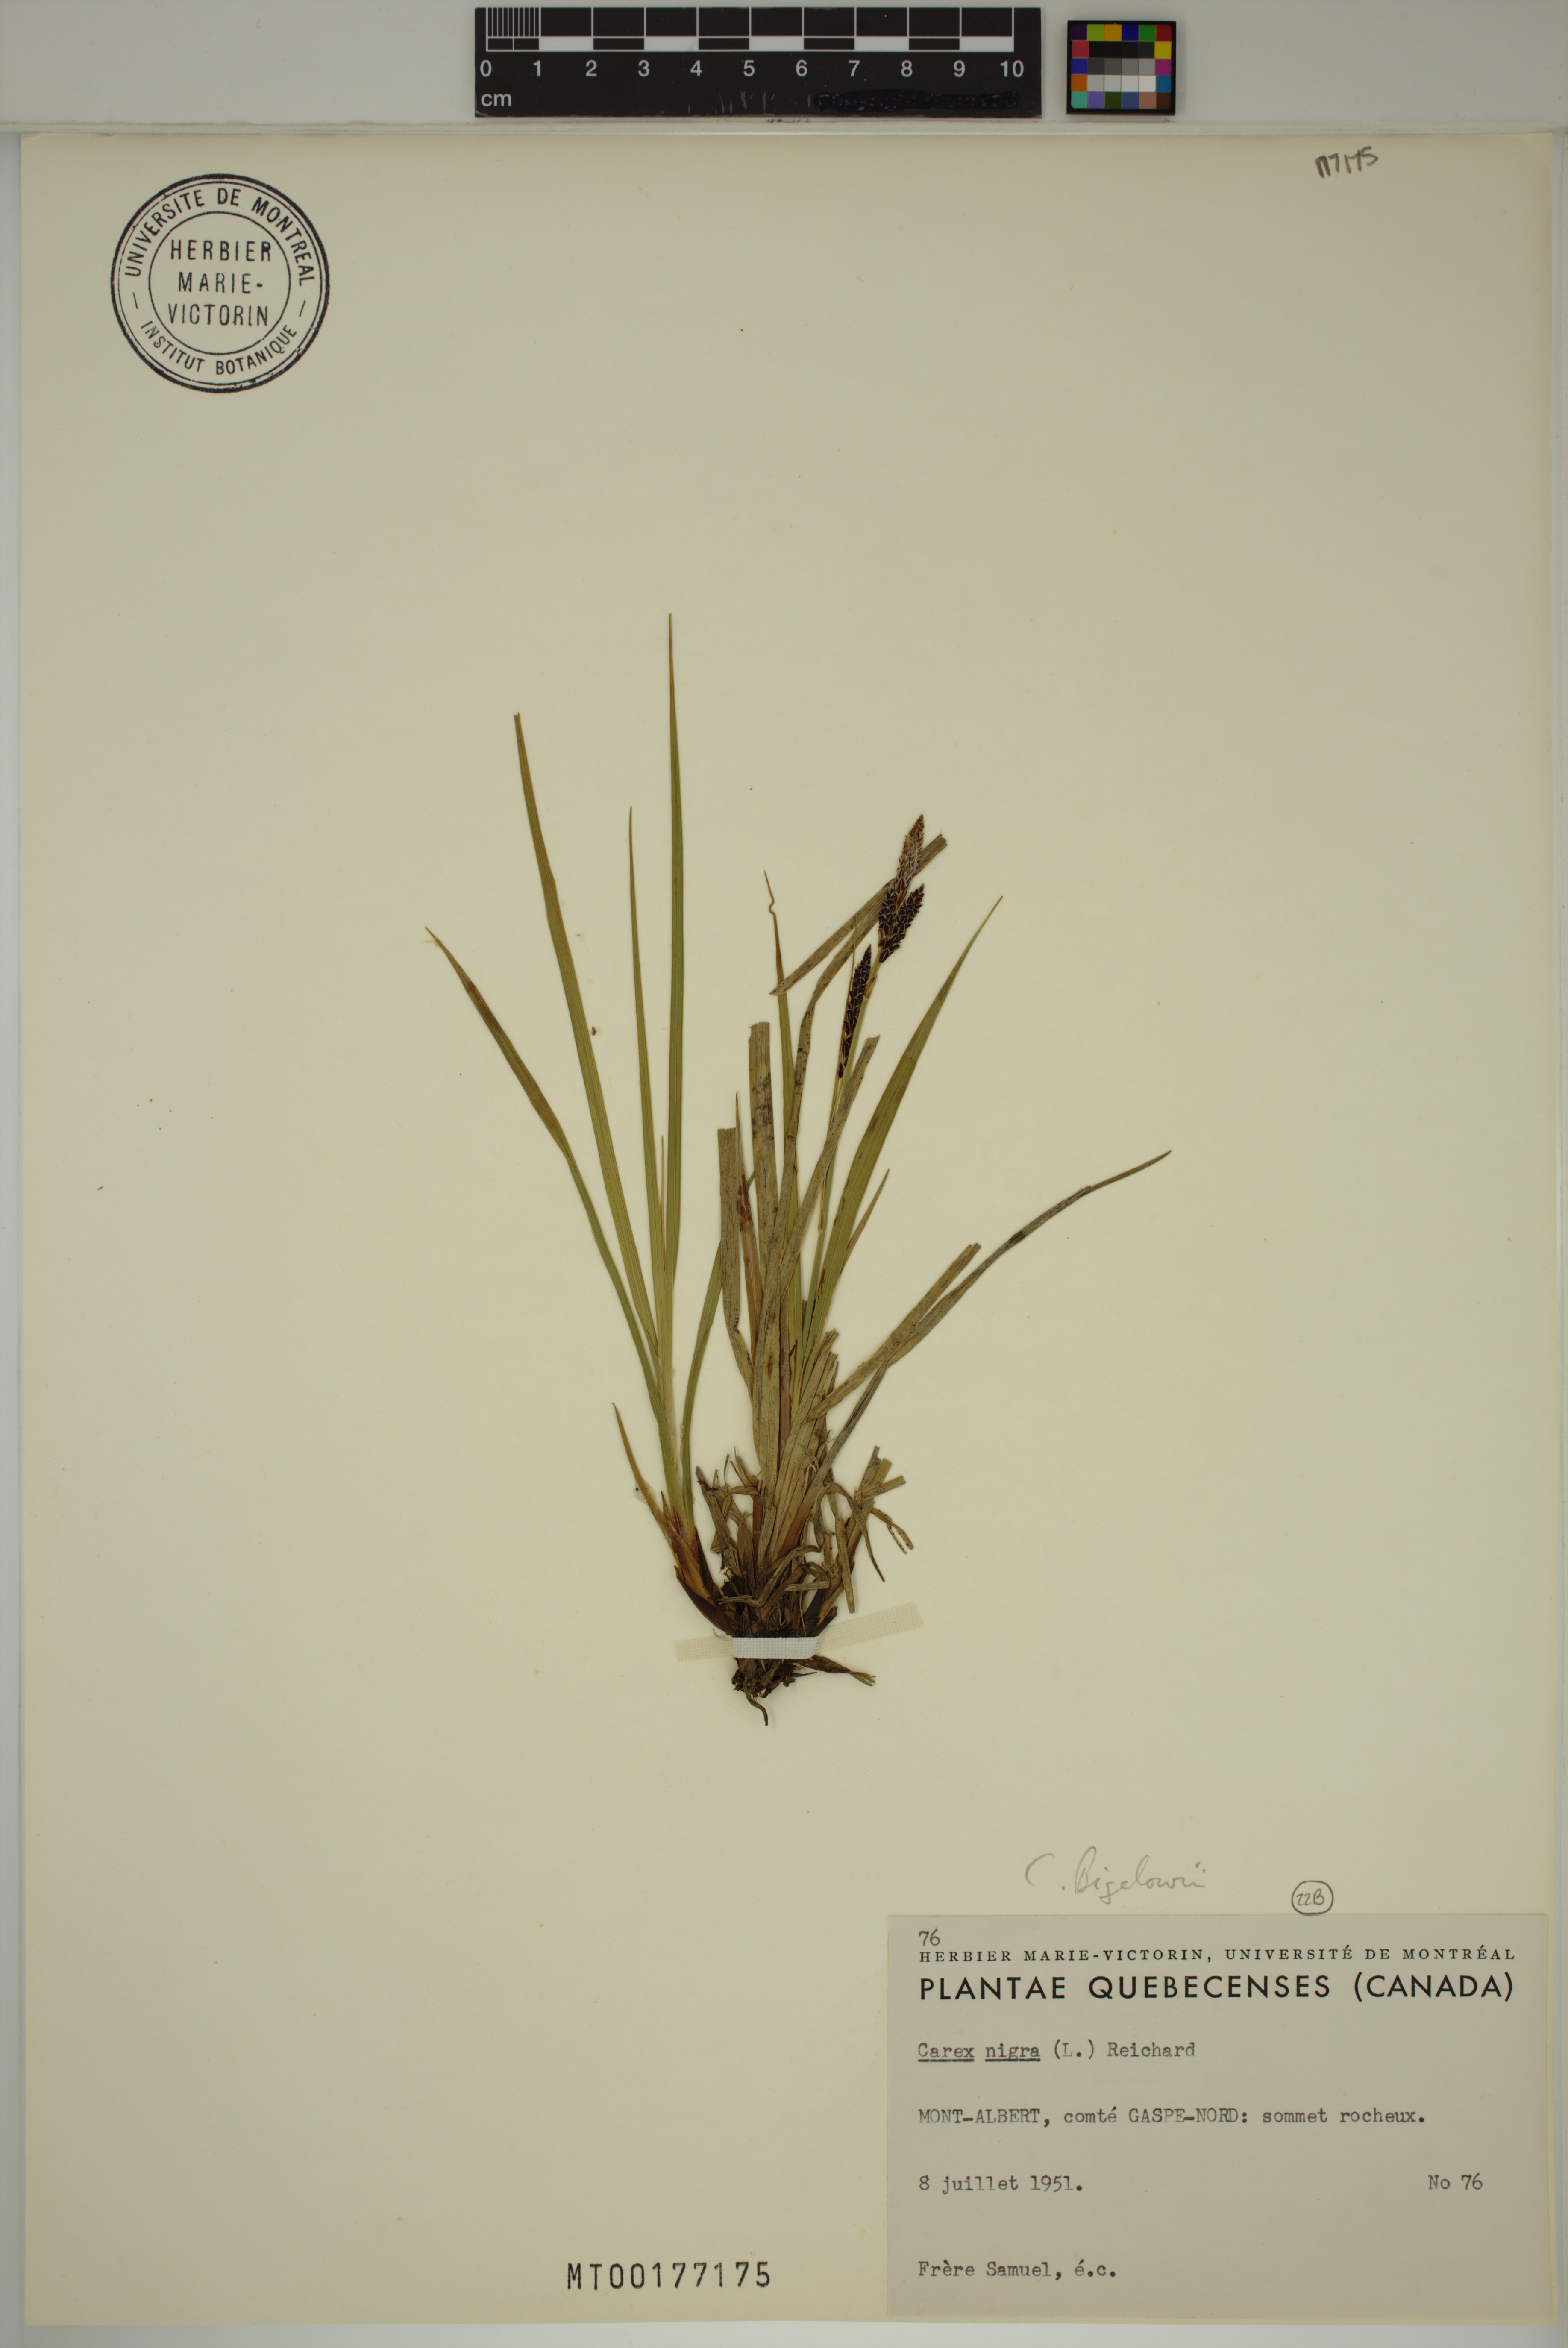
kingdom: Plantae
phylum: Tracheophyta
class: Liliopsida
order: Poales
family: Cyperaceae
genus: Carex
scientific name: Carex bigelowii
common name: Stiff sedge
